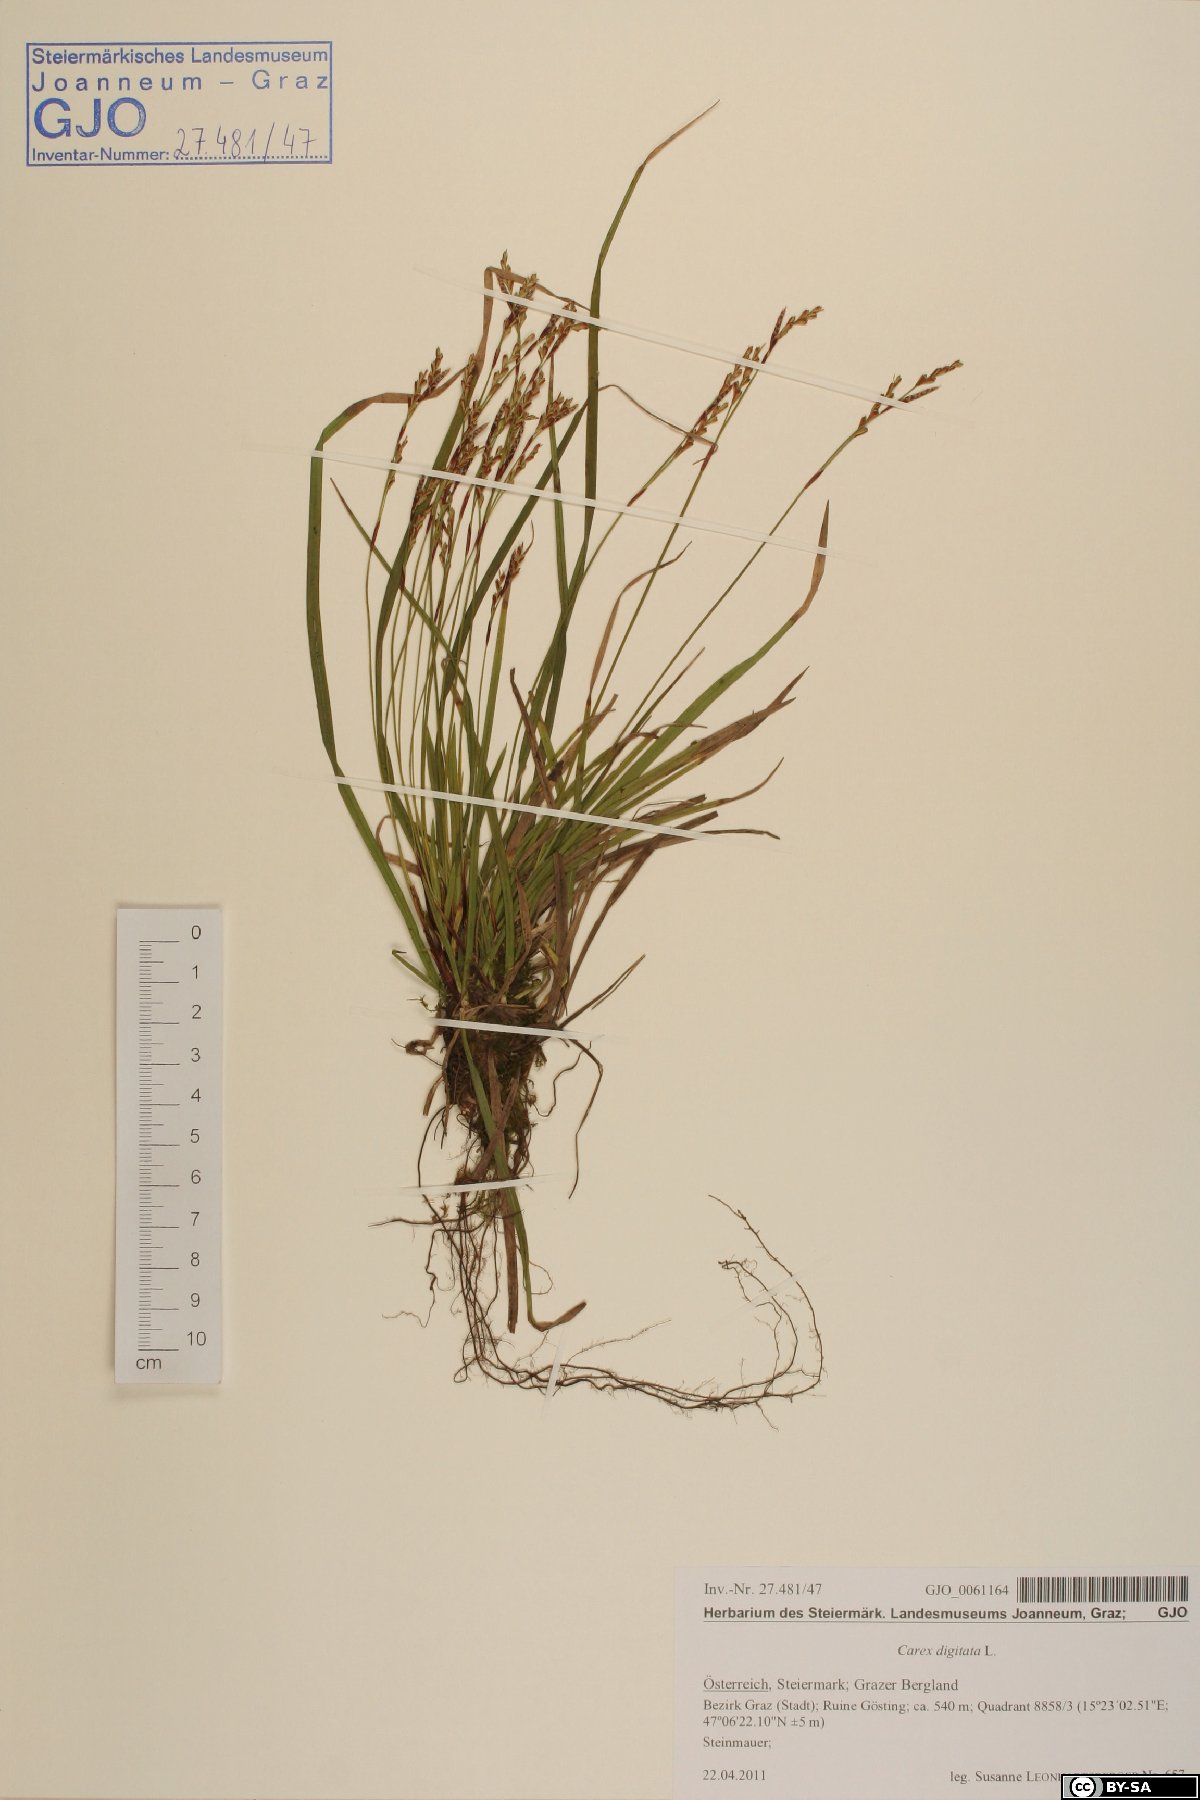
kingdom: Plantae
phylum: Tracheophyta
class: Liliopsida
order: Poales
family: Cyperaceae
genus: Carex
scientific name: Carex digitata
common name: Fingered sedge
